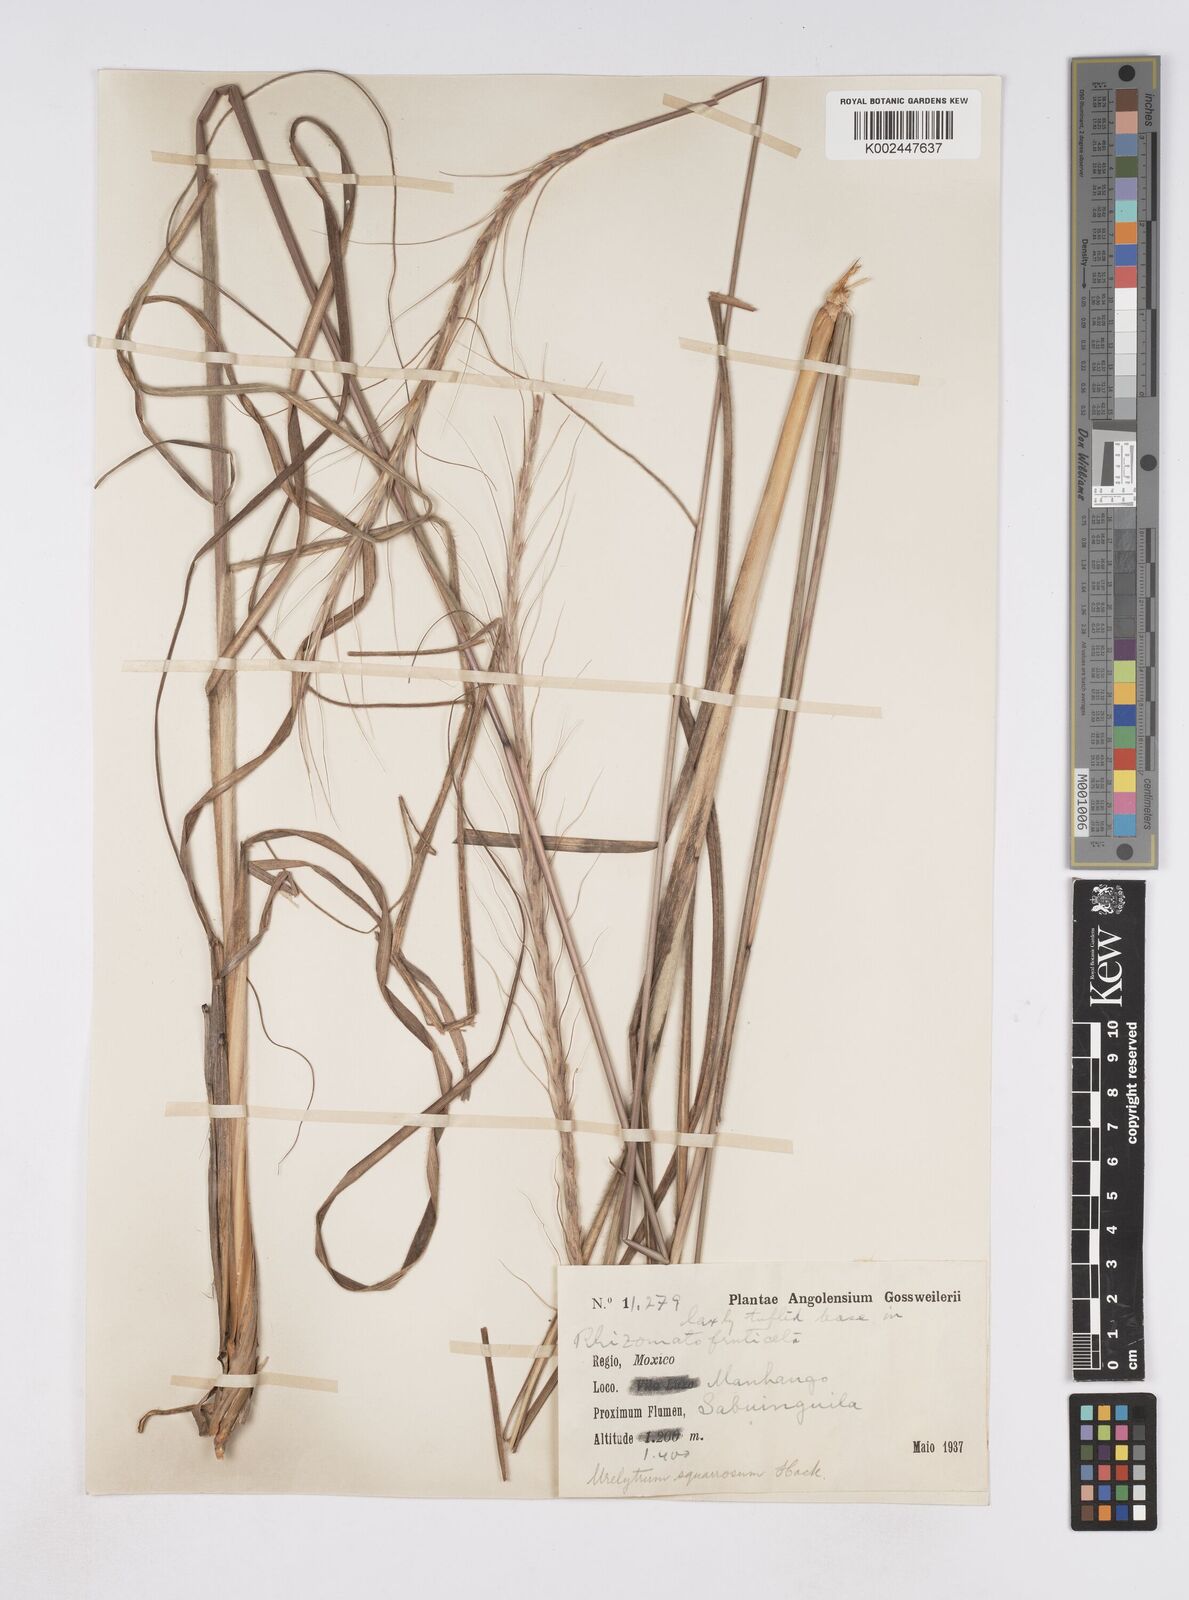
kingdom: Plantae
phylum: Tracheophyta
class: Liliopsida
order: Poales
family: Poaceae
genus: Urelytrum
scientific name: Urelytrum agropyroides
